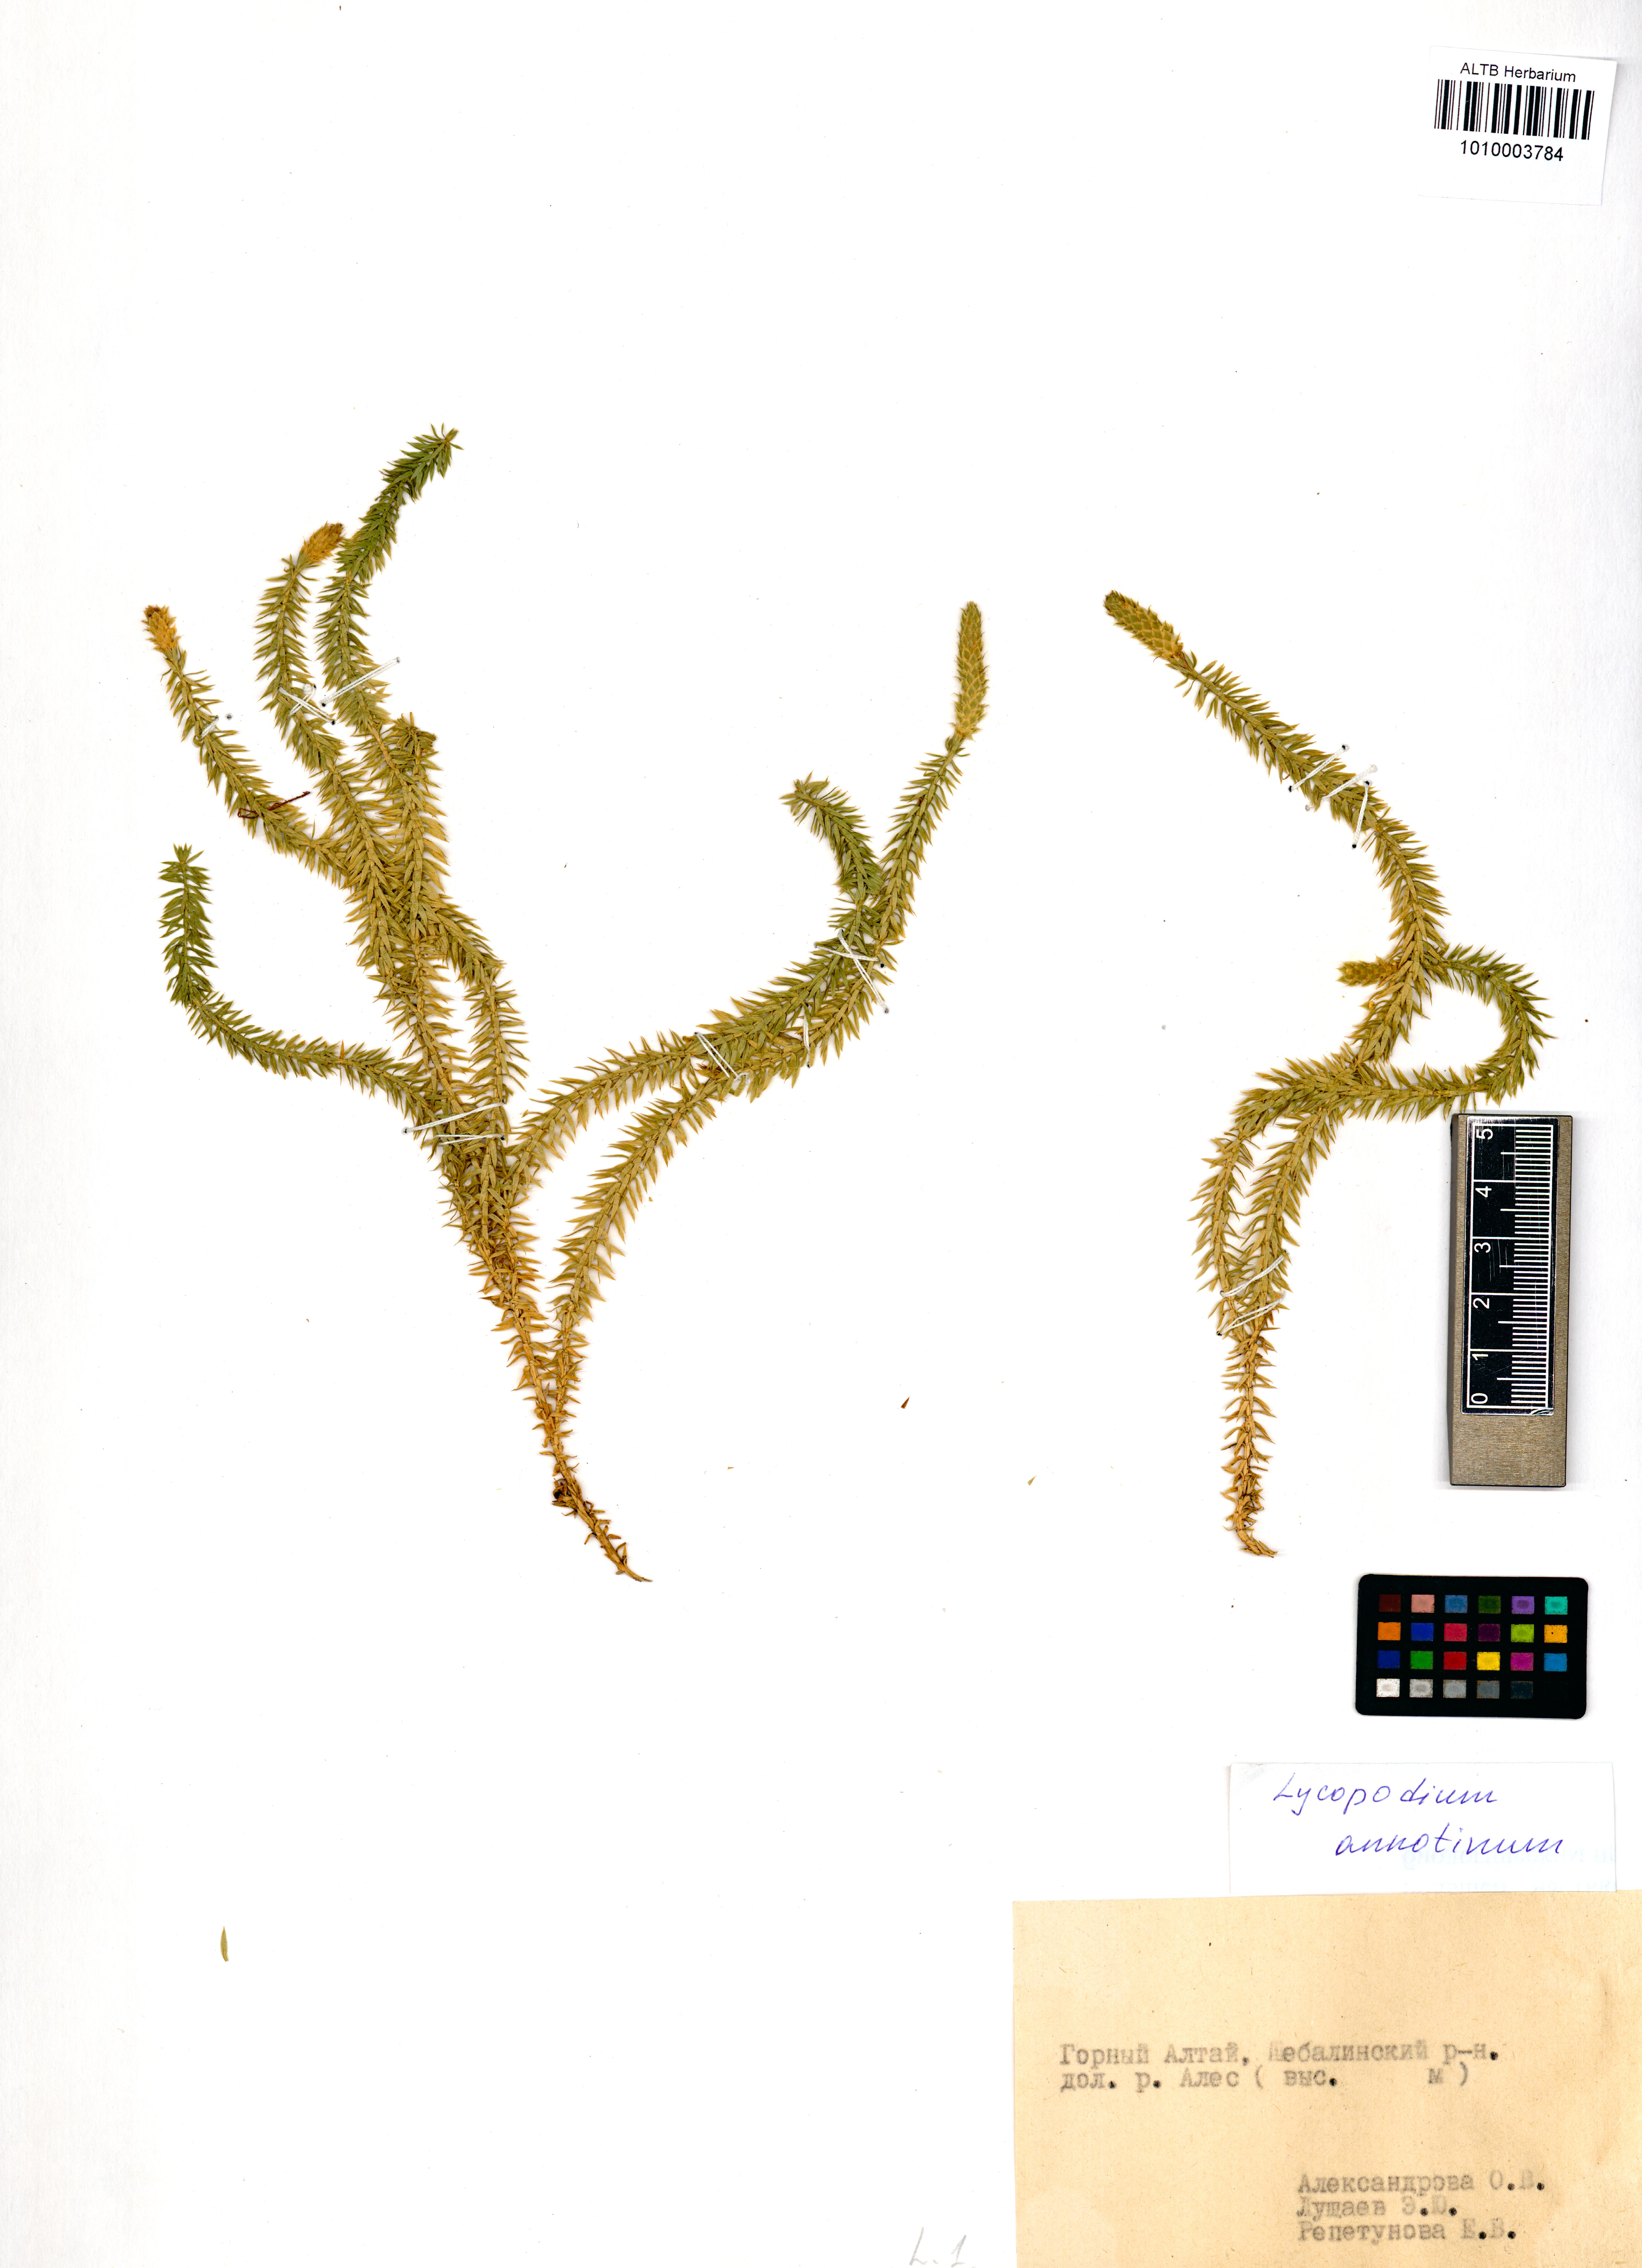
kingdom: Plantae
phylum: Tracheophyta
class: Lycopodiopsida
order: Lycopodiales
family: Lycopodiaceae
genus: Spinulum
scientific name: Spinulum annotinum
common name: Interrupted club-moss
